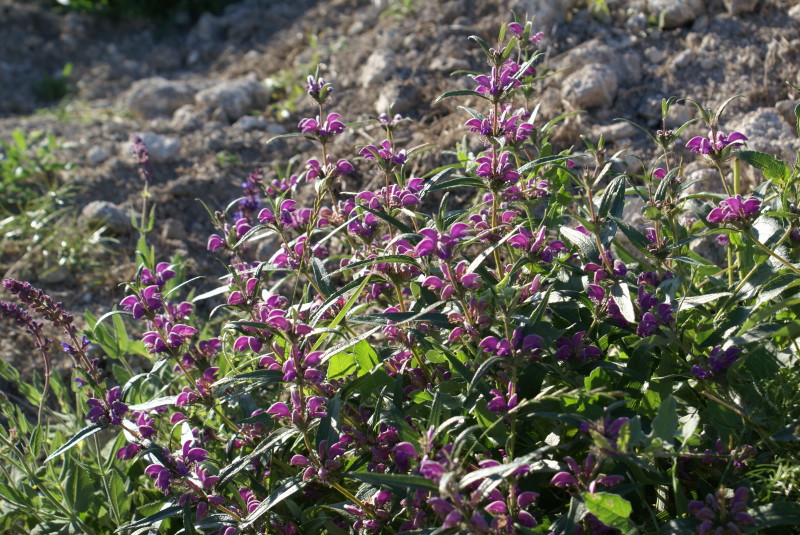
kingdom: Plantae
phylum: Tracheophyta
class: Magnoliopsida
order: Lamiales
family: Lamiaceae
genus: Phlomis
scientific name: Phlomis herba-venti
